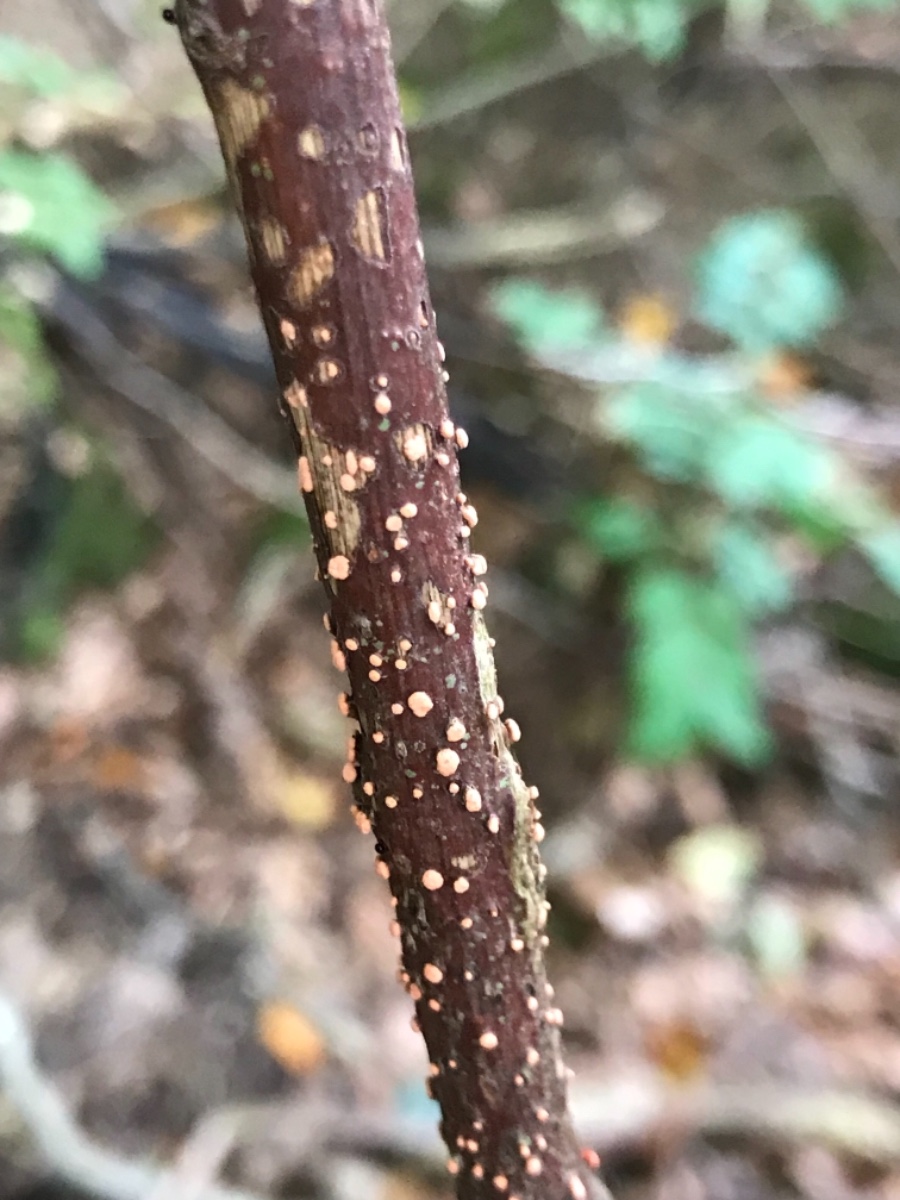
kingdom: Fungi
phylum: Ascomycota
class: Sordariomycetes
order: Hypocreales
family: Nectriaceae
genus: Nectria
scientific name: Nectria cinnabarina
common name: almindelig cinnobersvamp
